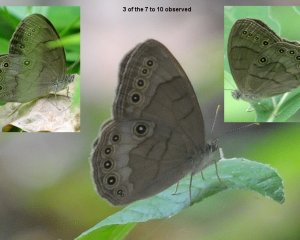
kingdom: Animalia
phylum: Arthropoda
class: Insecta
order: Lepidoptera
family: Nymphalidae
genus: Lethe
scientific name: Lethe eurydice
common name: Appalachian Eyed Brown
